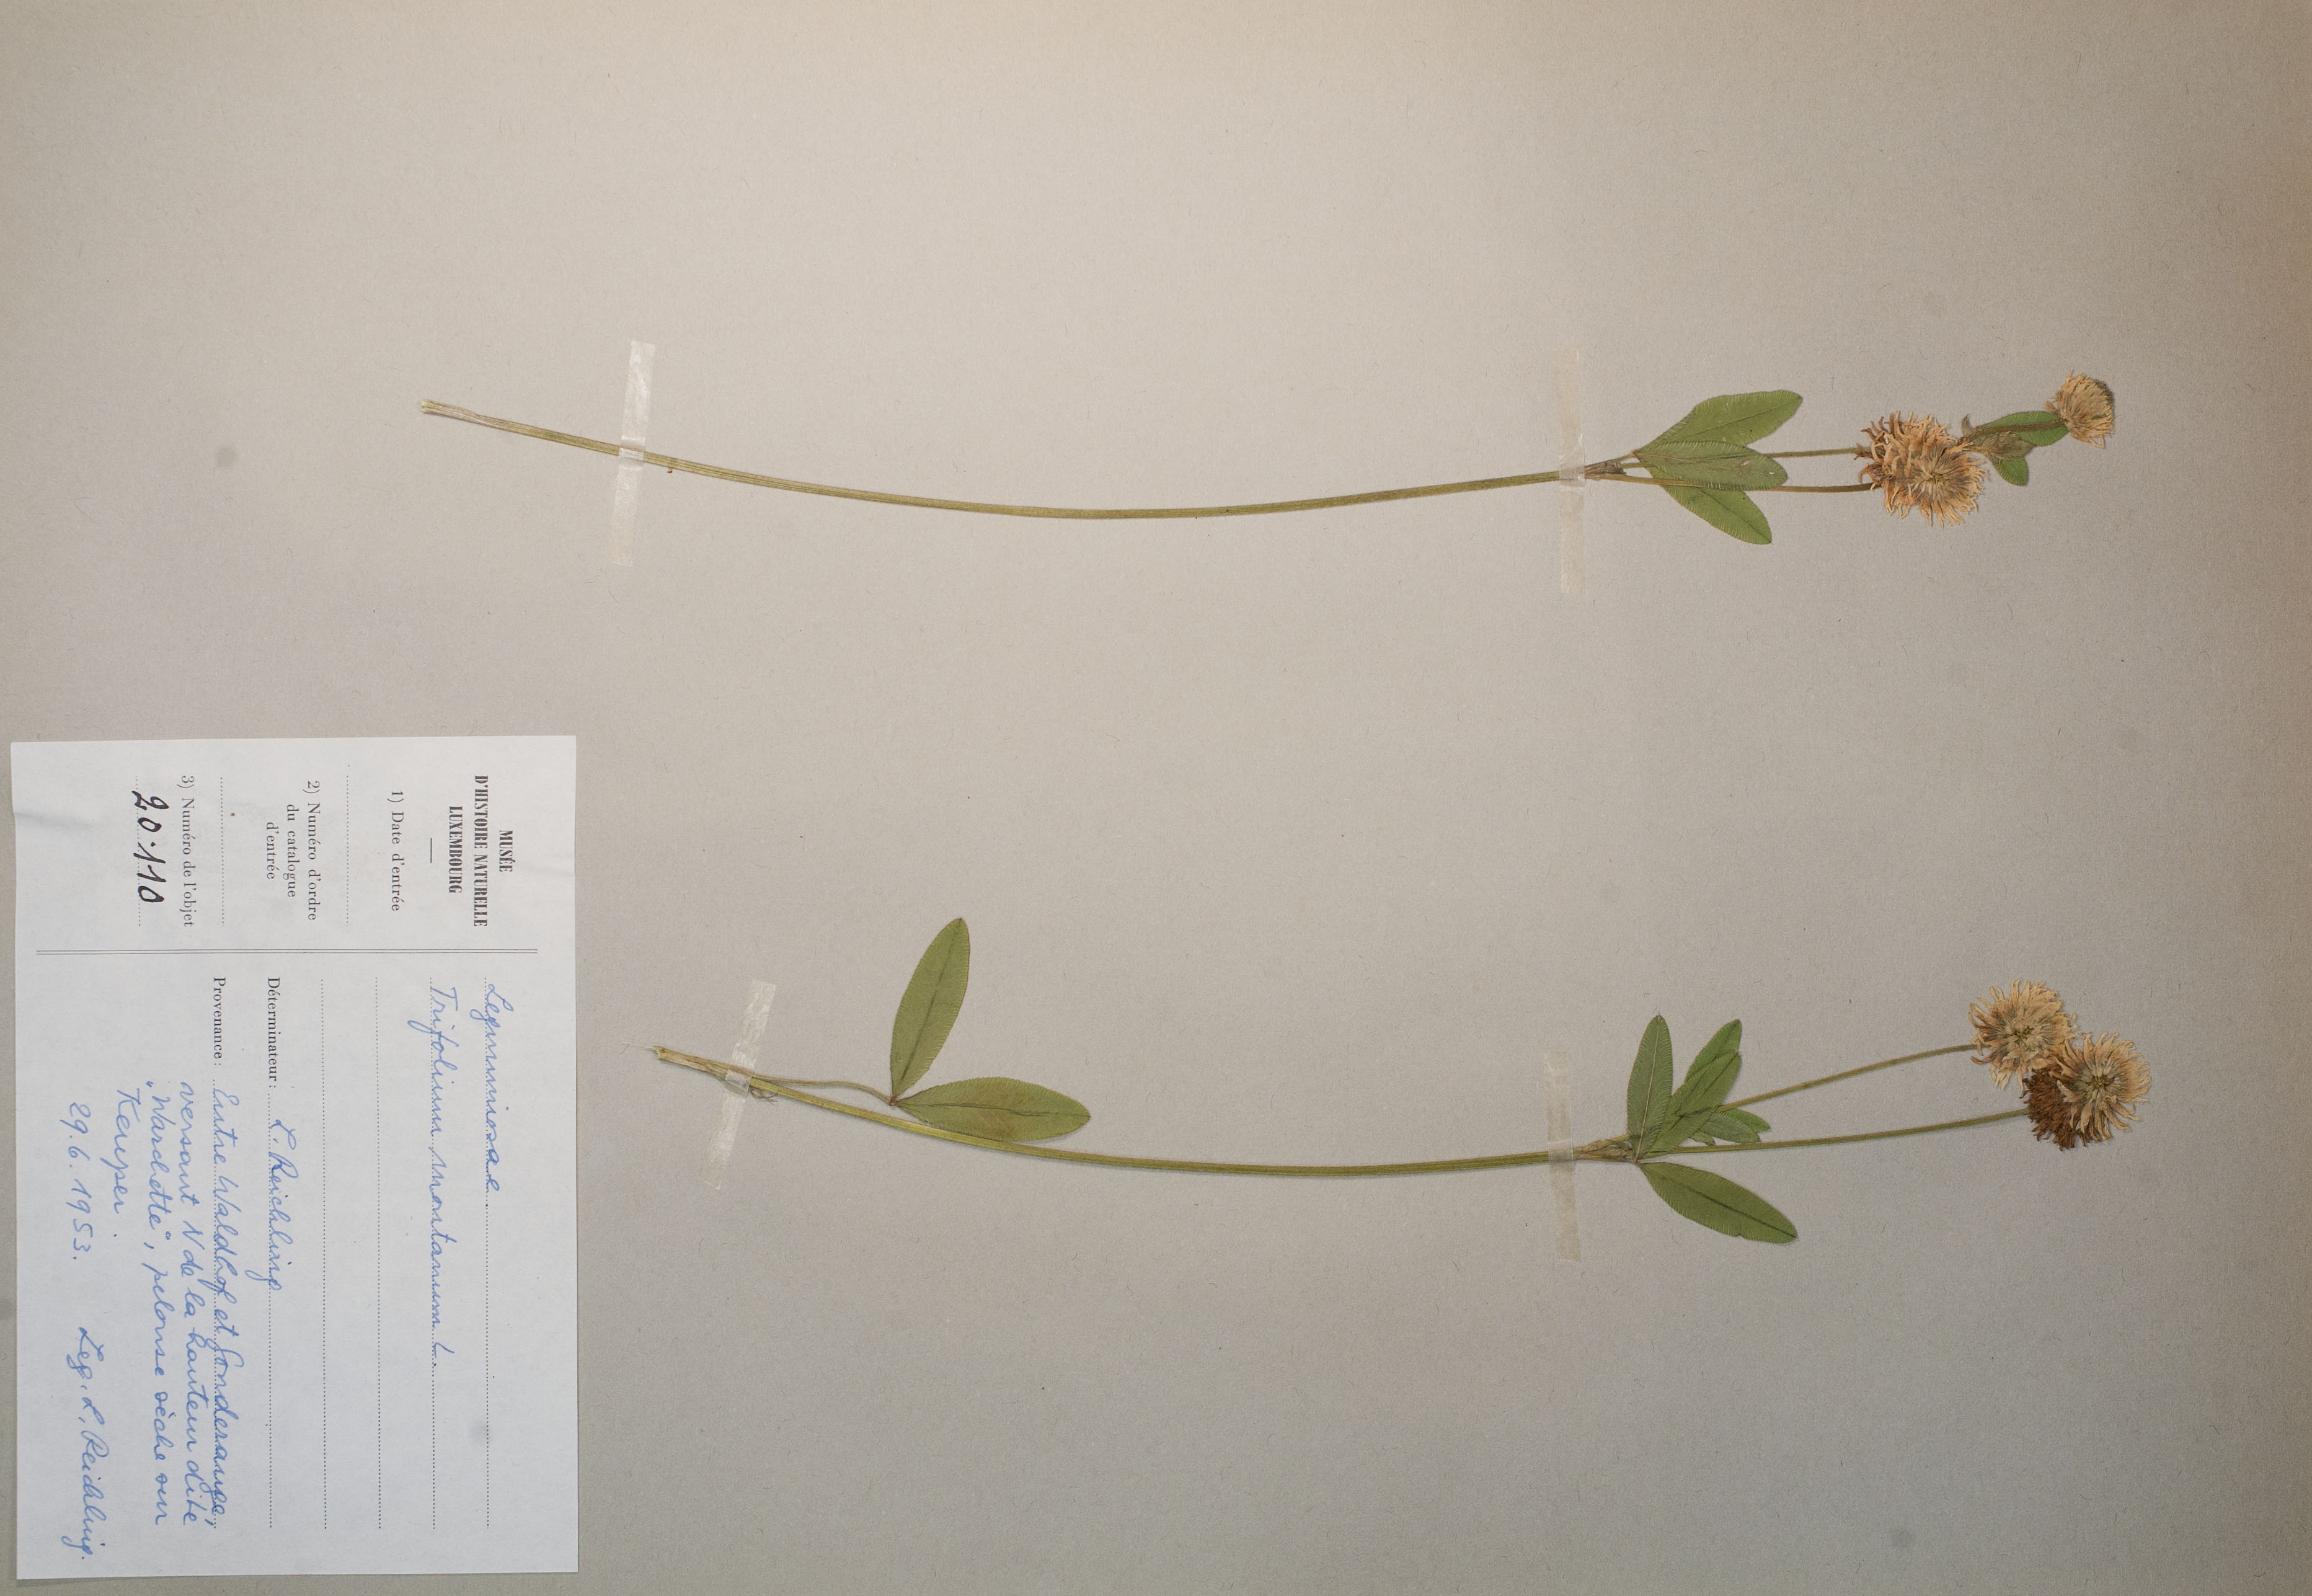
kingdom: Plantae
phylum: Tracheophyta
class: Magnoliopsida
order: Fabales
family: Fabaceae
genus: Trifolium
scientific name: Trifolium montanum
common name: Mountain clover
